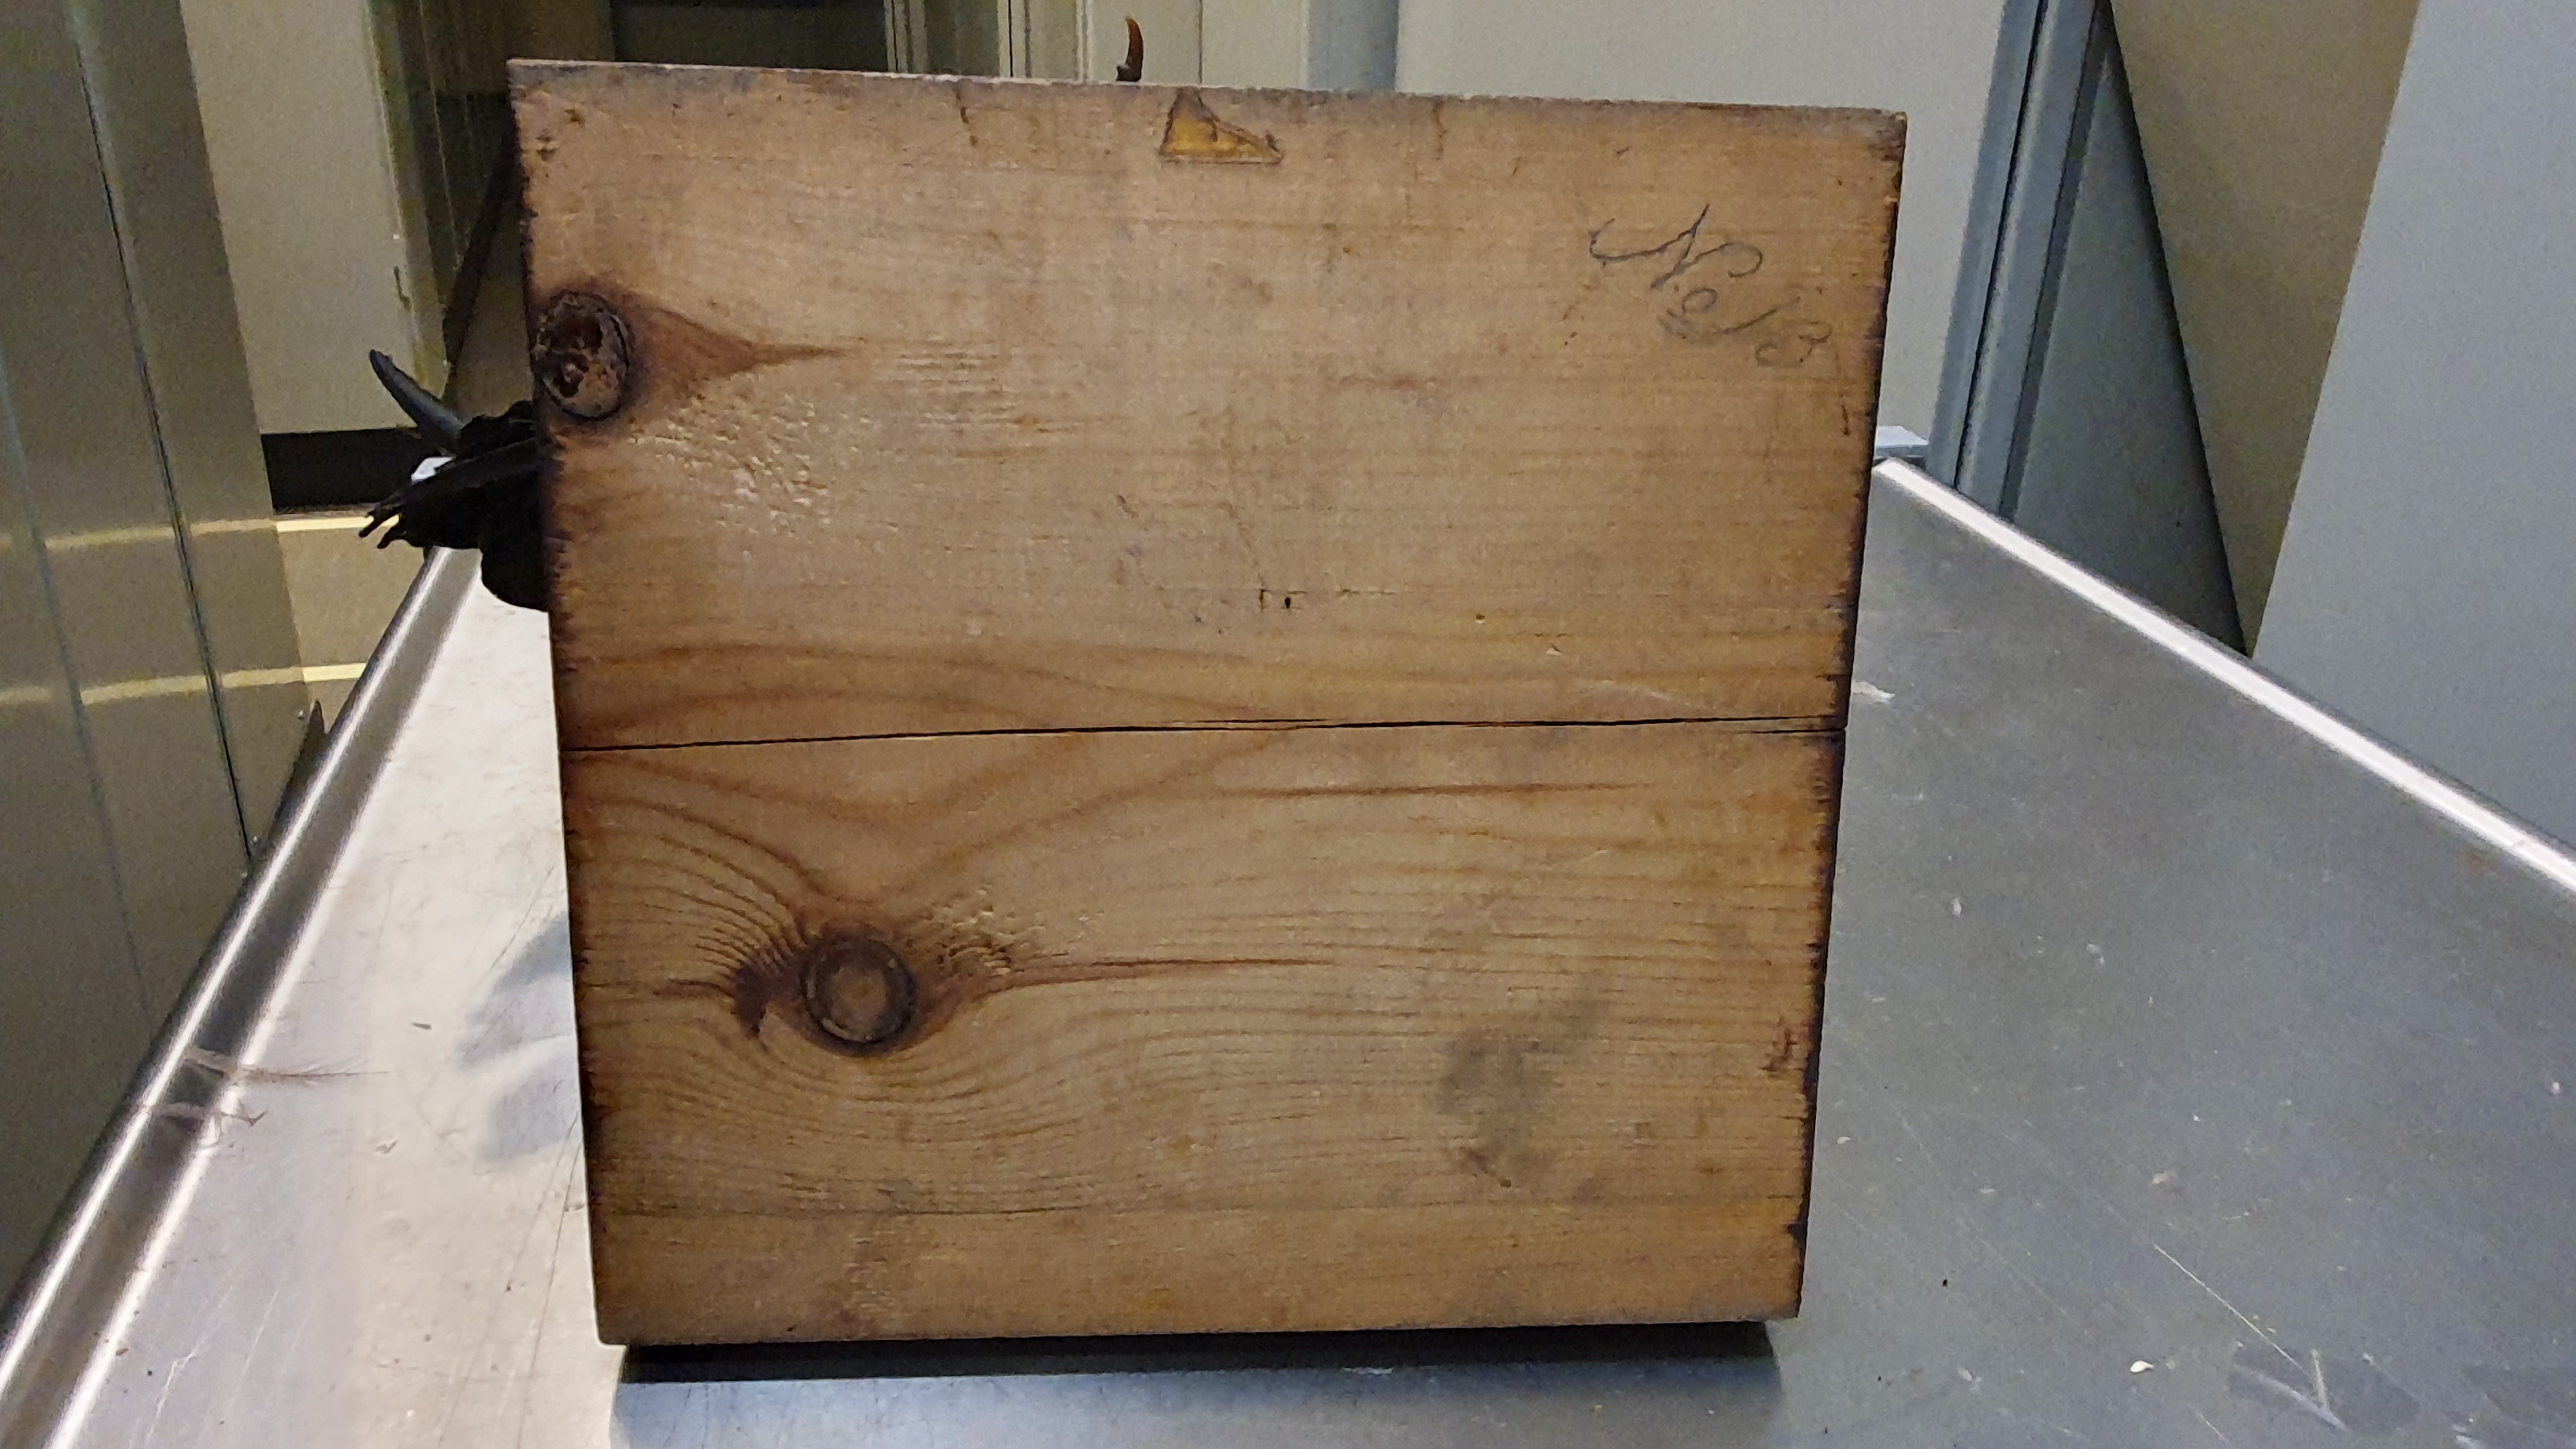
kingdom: Animalia
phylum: Chordata
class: Aves
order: Pelecaniformes
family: Threskiornithidae
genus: Plegadis
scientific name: Plegadis falcinellus
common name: Glossy ibis
